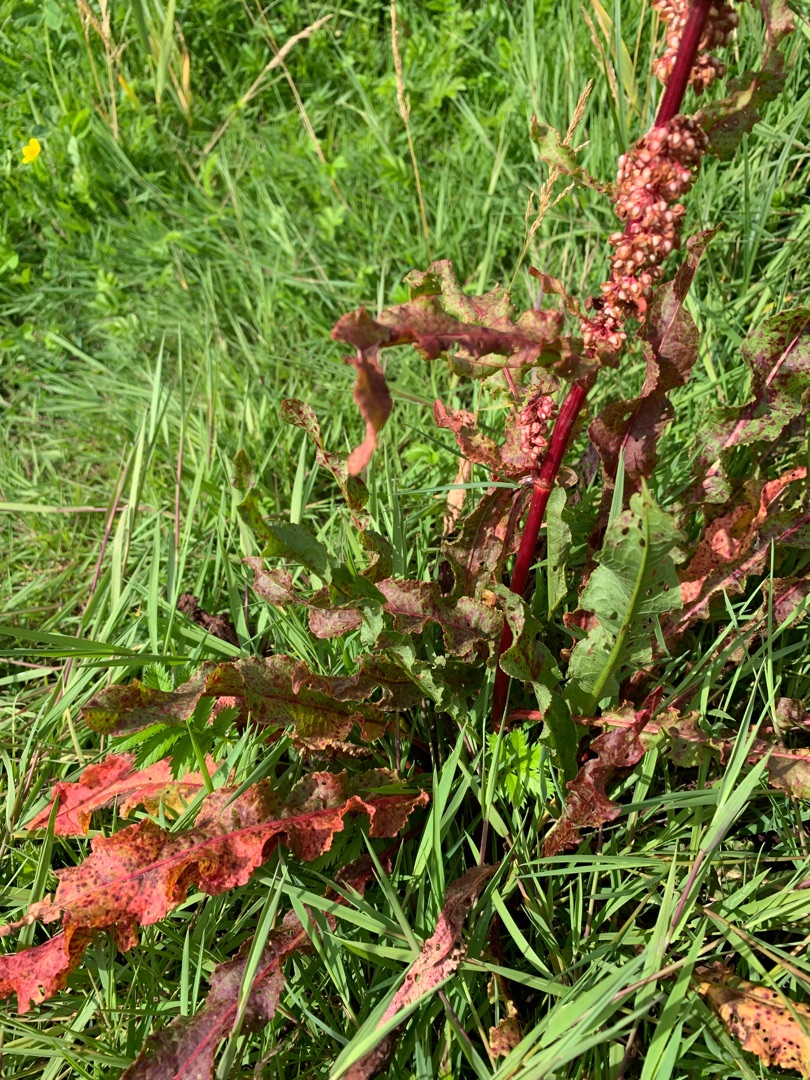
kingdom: Plantae
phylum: Tracheophyta
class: Magnoliopsida
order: Caryophyllales
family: Polygonaceae
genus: Rumex
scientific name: Rumex crispus
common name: Kruset skræppe
